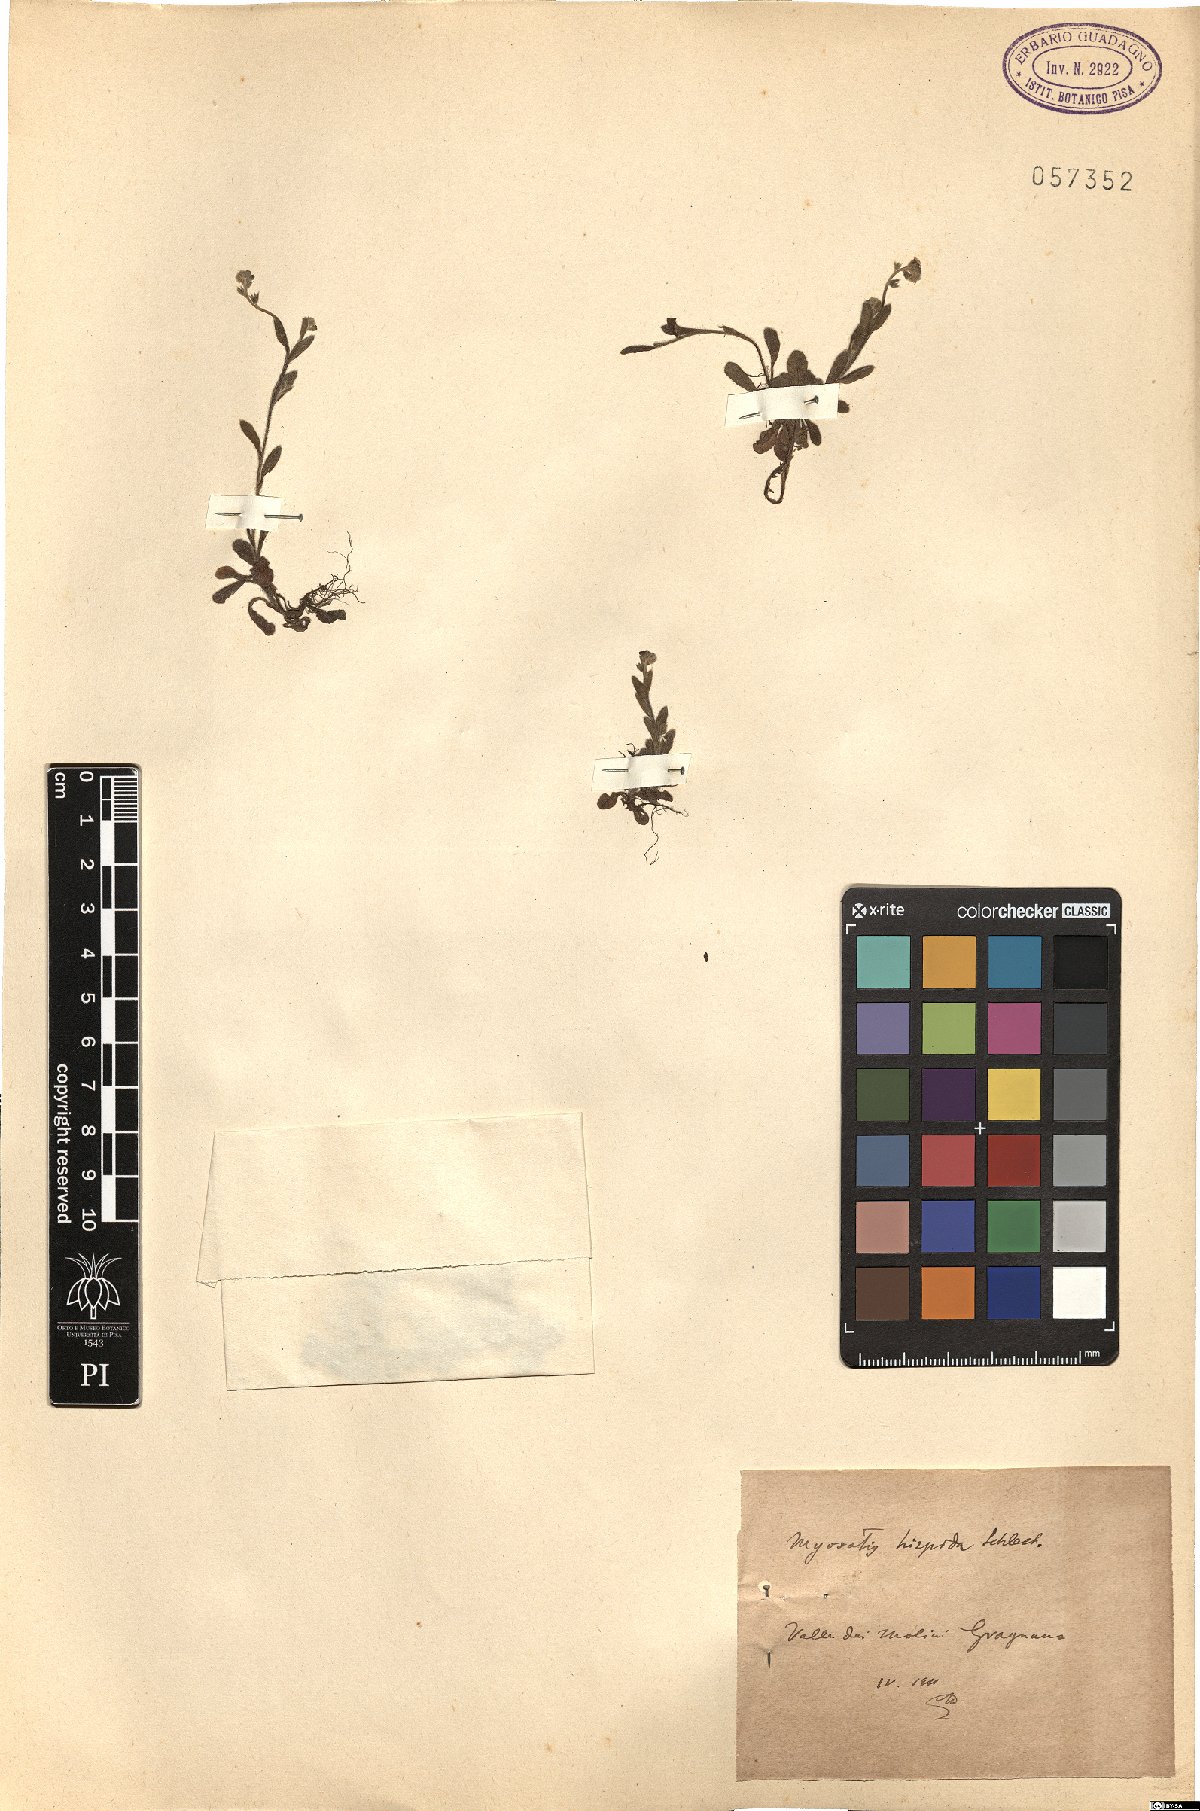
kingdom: Plantae
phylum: Tracheophyta
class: Magnoliopsida
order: Boraginales
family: Boraginaceae
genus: Myosotis
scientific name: Myosotis ramosissima
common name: Early forget-me-not
